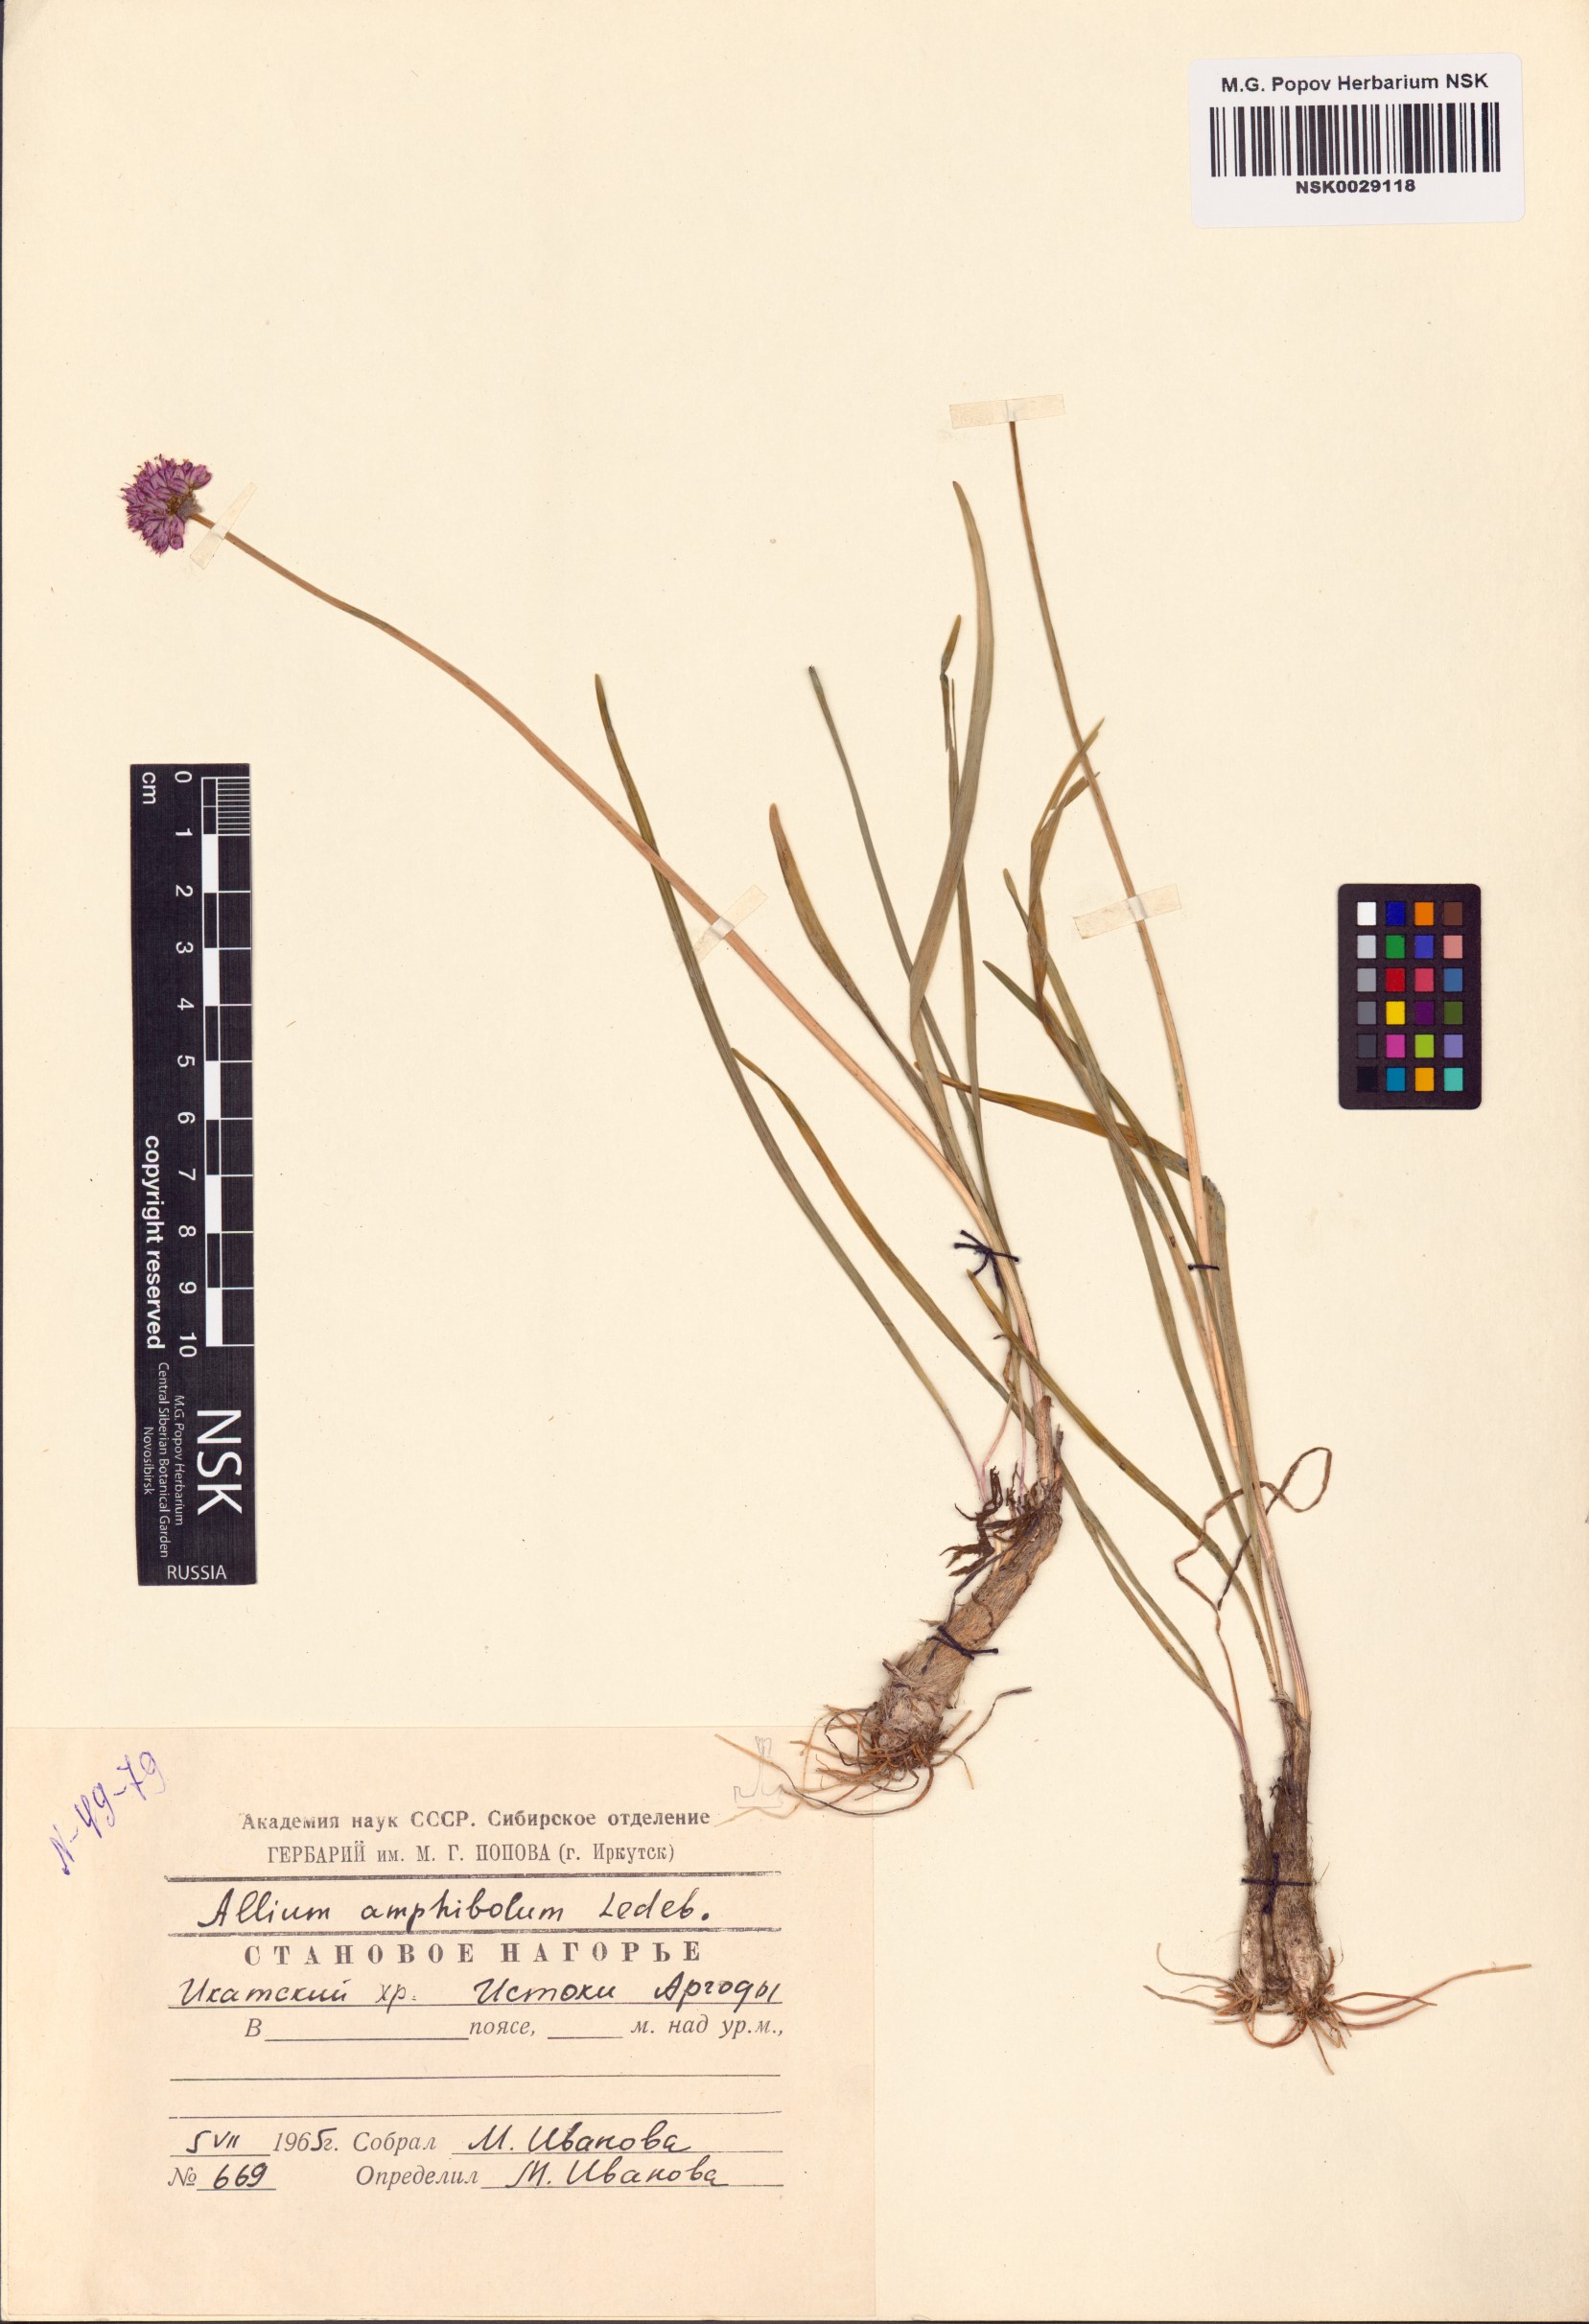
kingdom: Plantae
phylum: Tracheophyta
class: Liliopsida
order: Asparagales
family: Amaryllidaceae
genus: Allium
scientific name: Allium amphibolum
